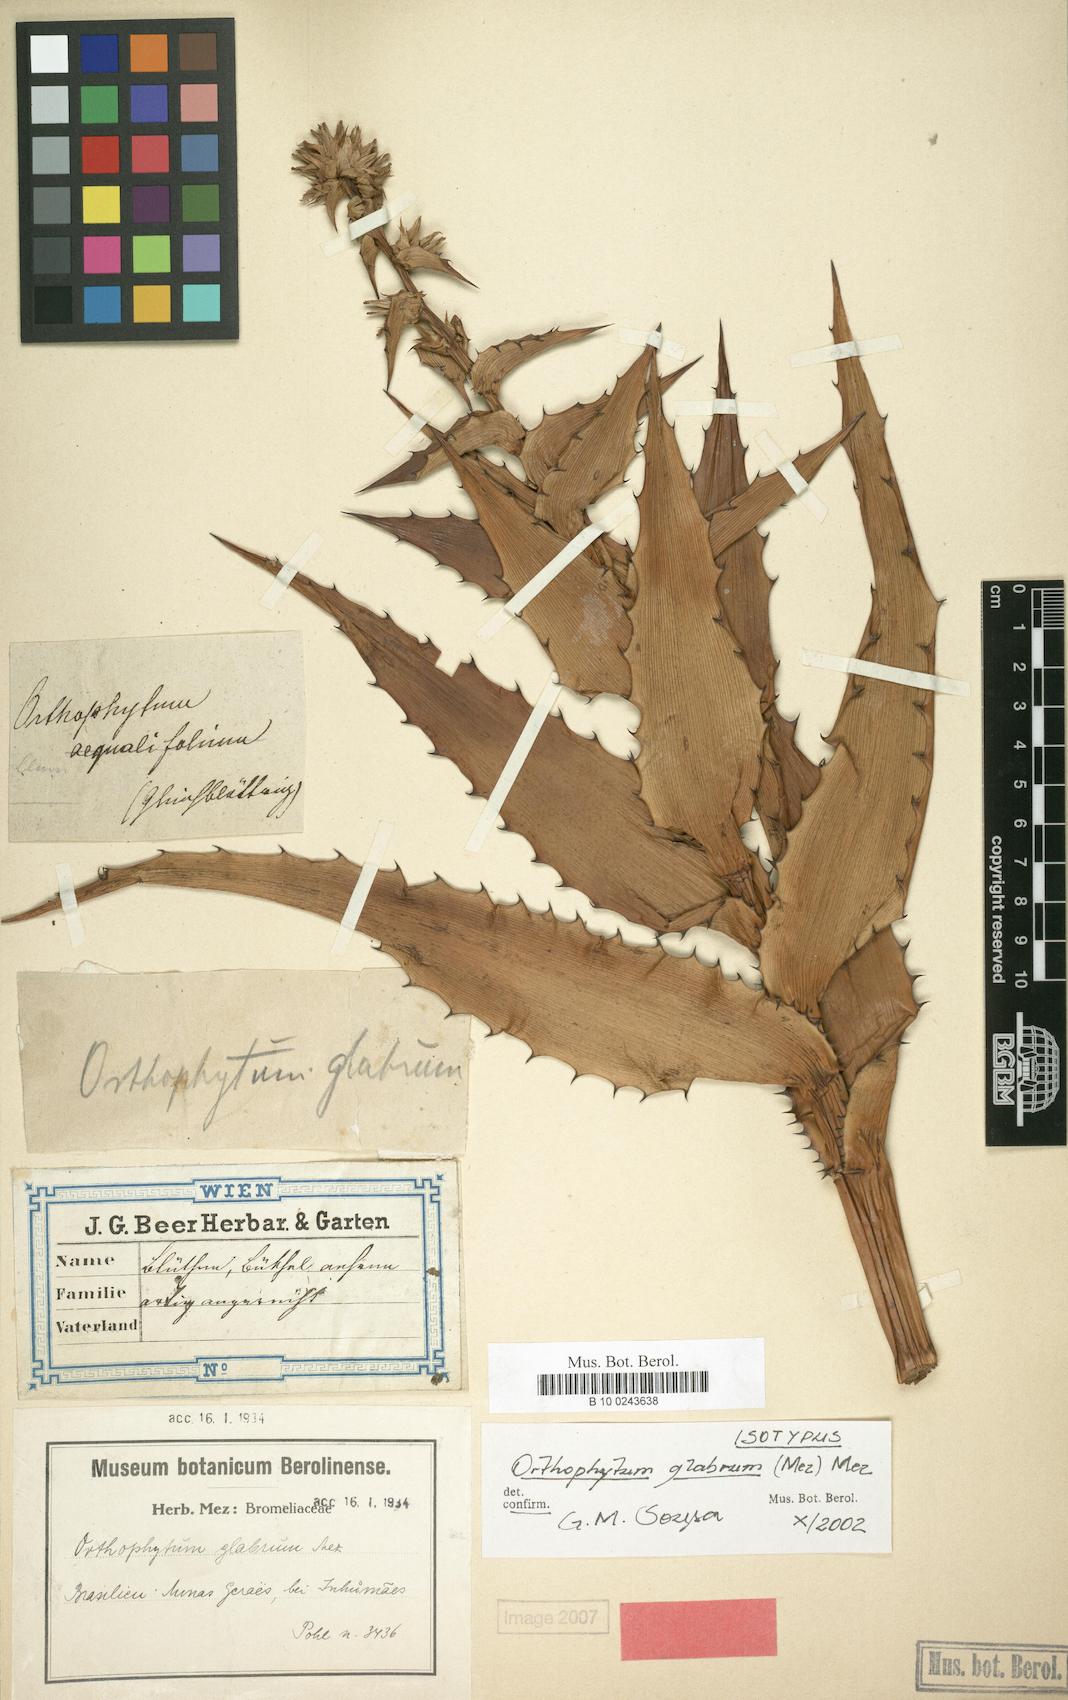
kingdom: Plantae
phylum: Tracheophyta
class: Liliopsida
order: Poales
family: Bromeliaceae
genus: Orthophytum
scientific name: Orthophytum glabrum
